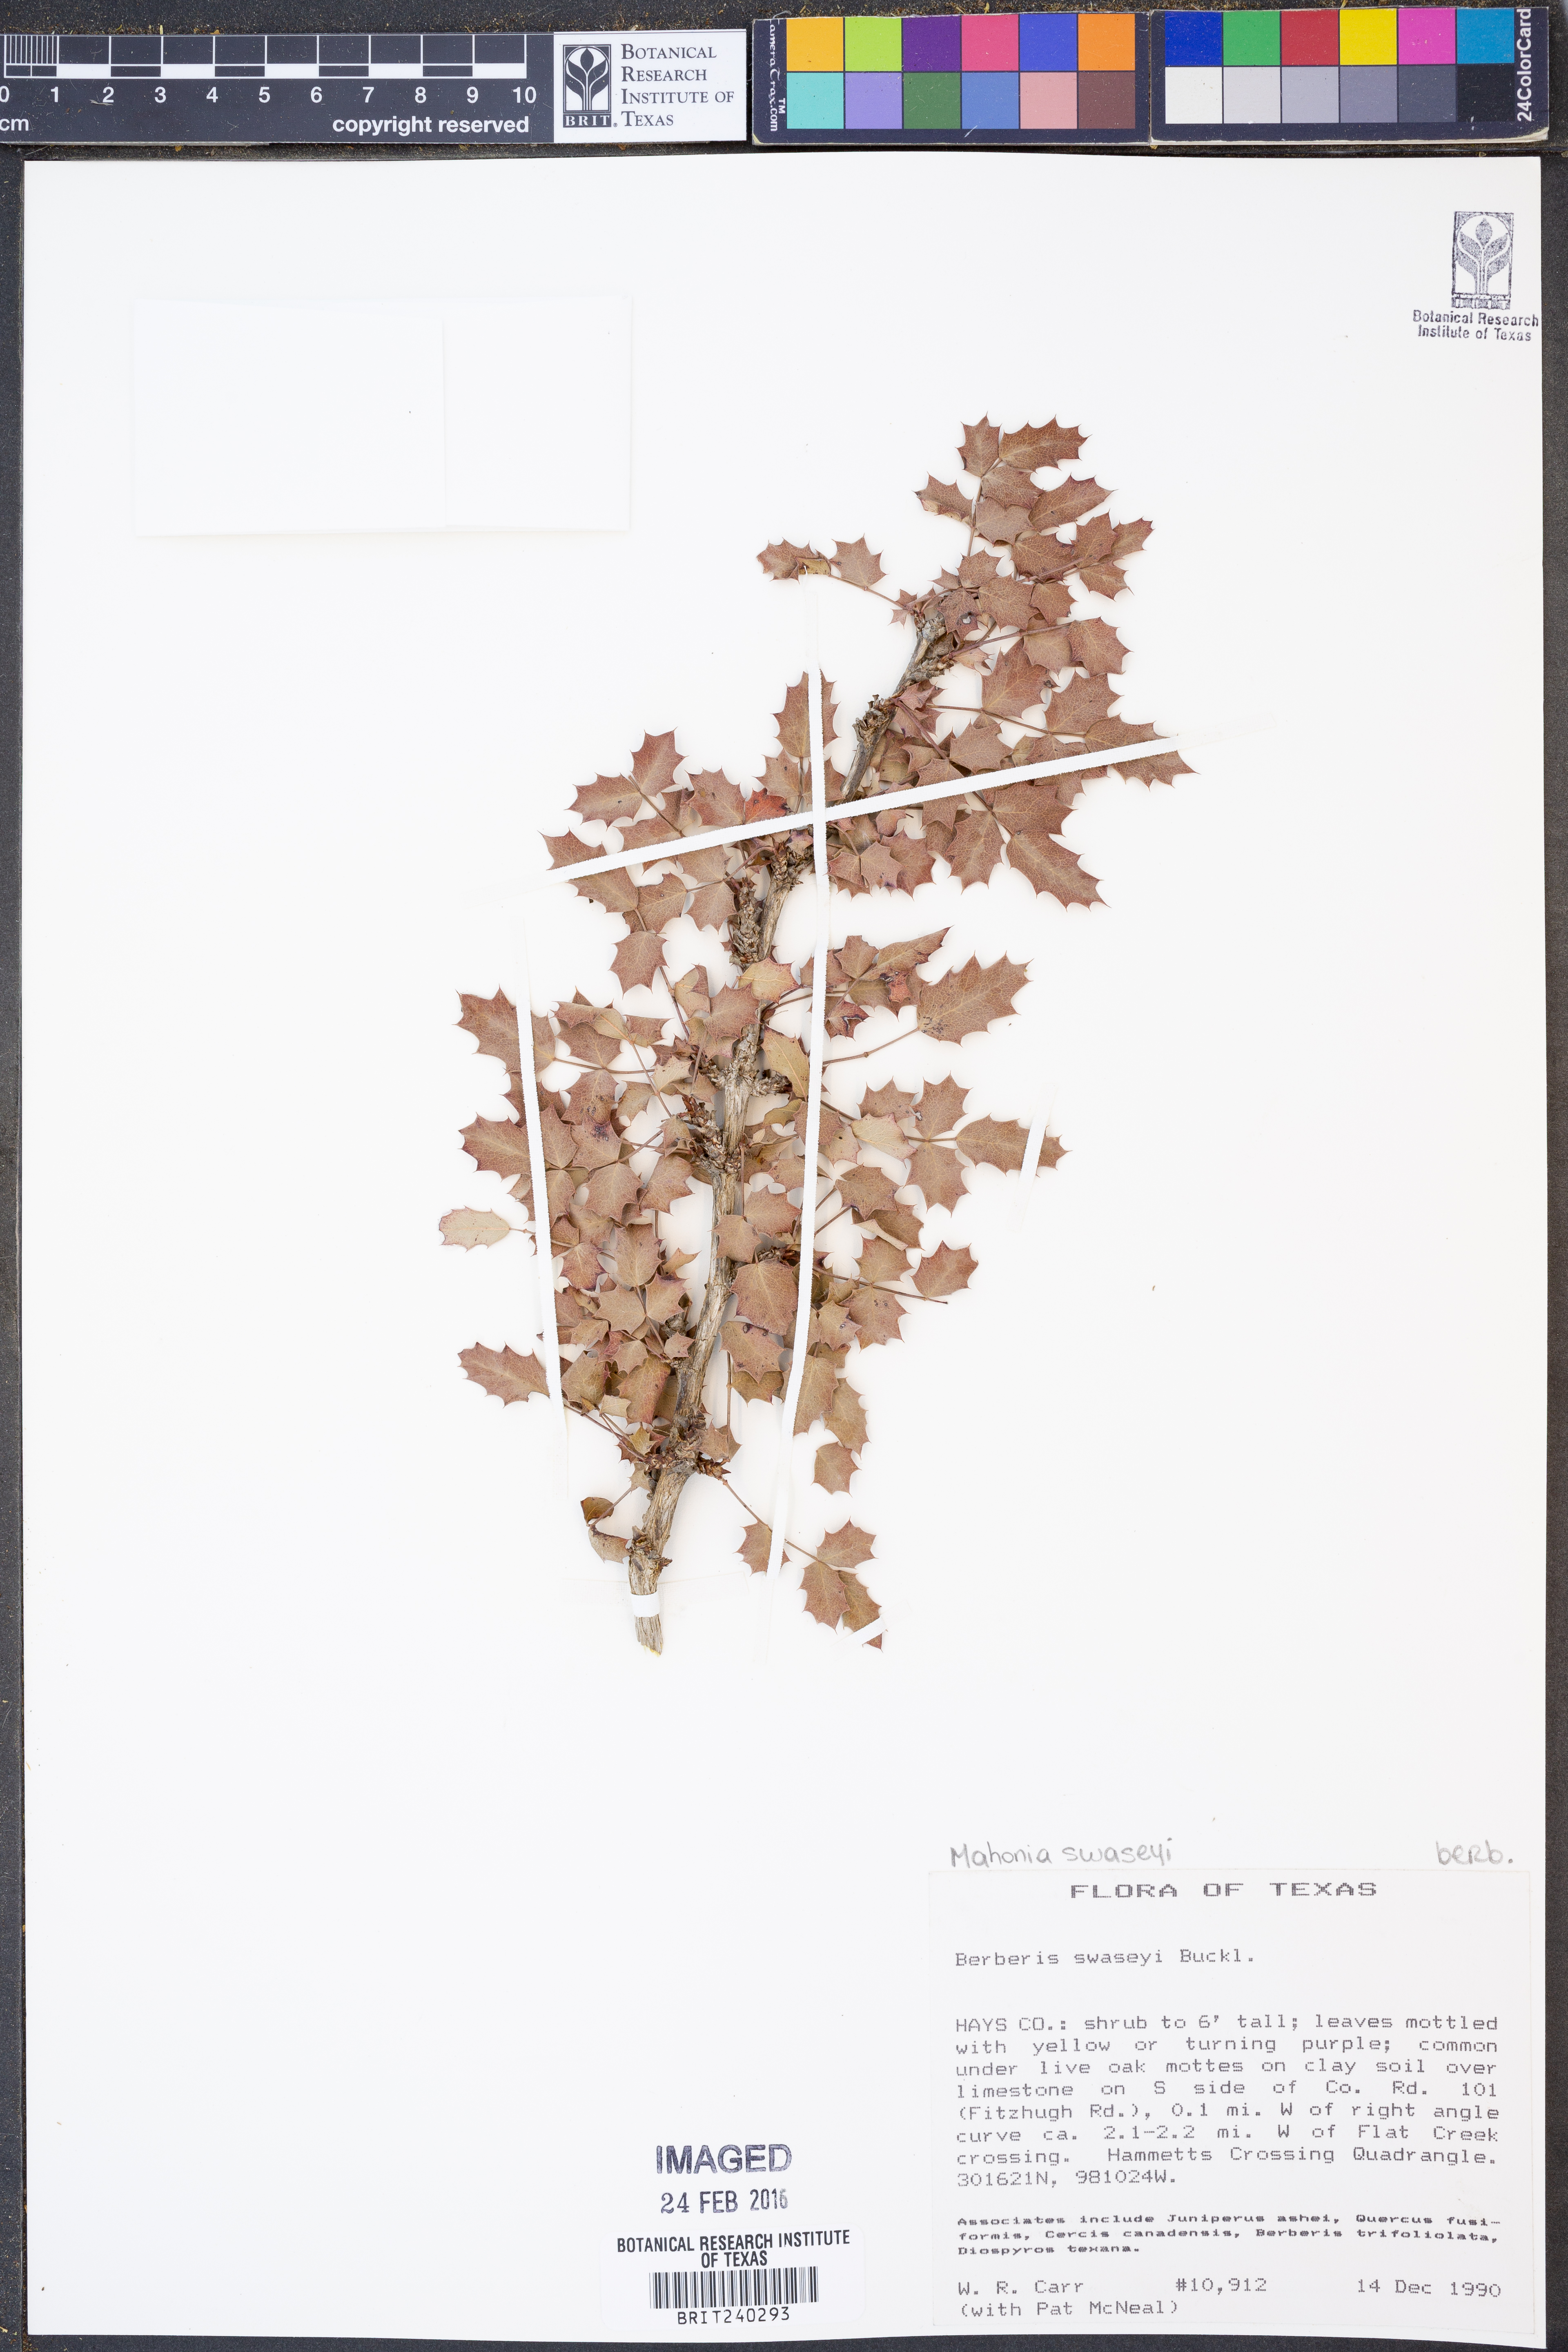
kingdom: Plantae
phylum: Tracheophyta
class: Magnoliopsida
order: Ranunculales
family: Berberidaceae
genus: Alloberberis
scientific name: Alloberberis swaseyi
